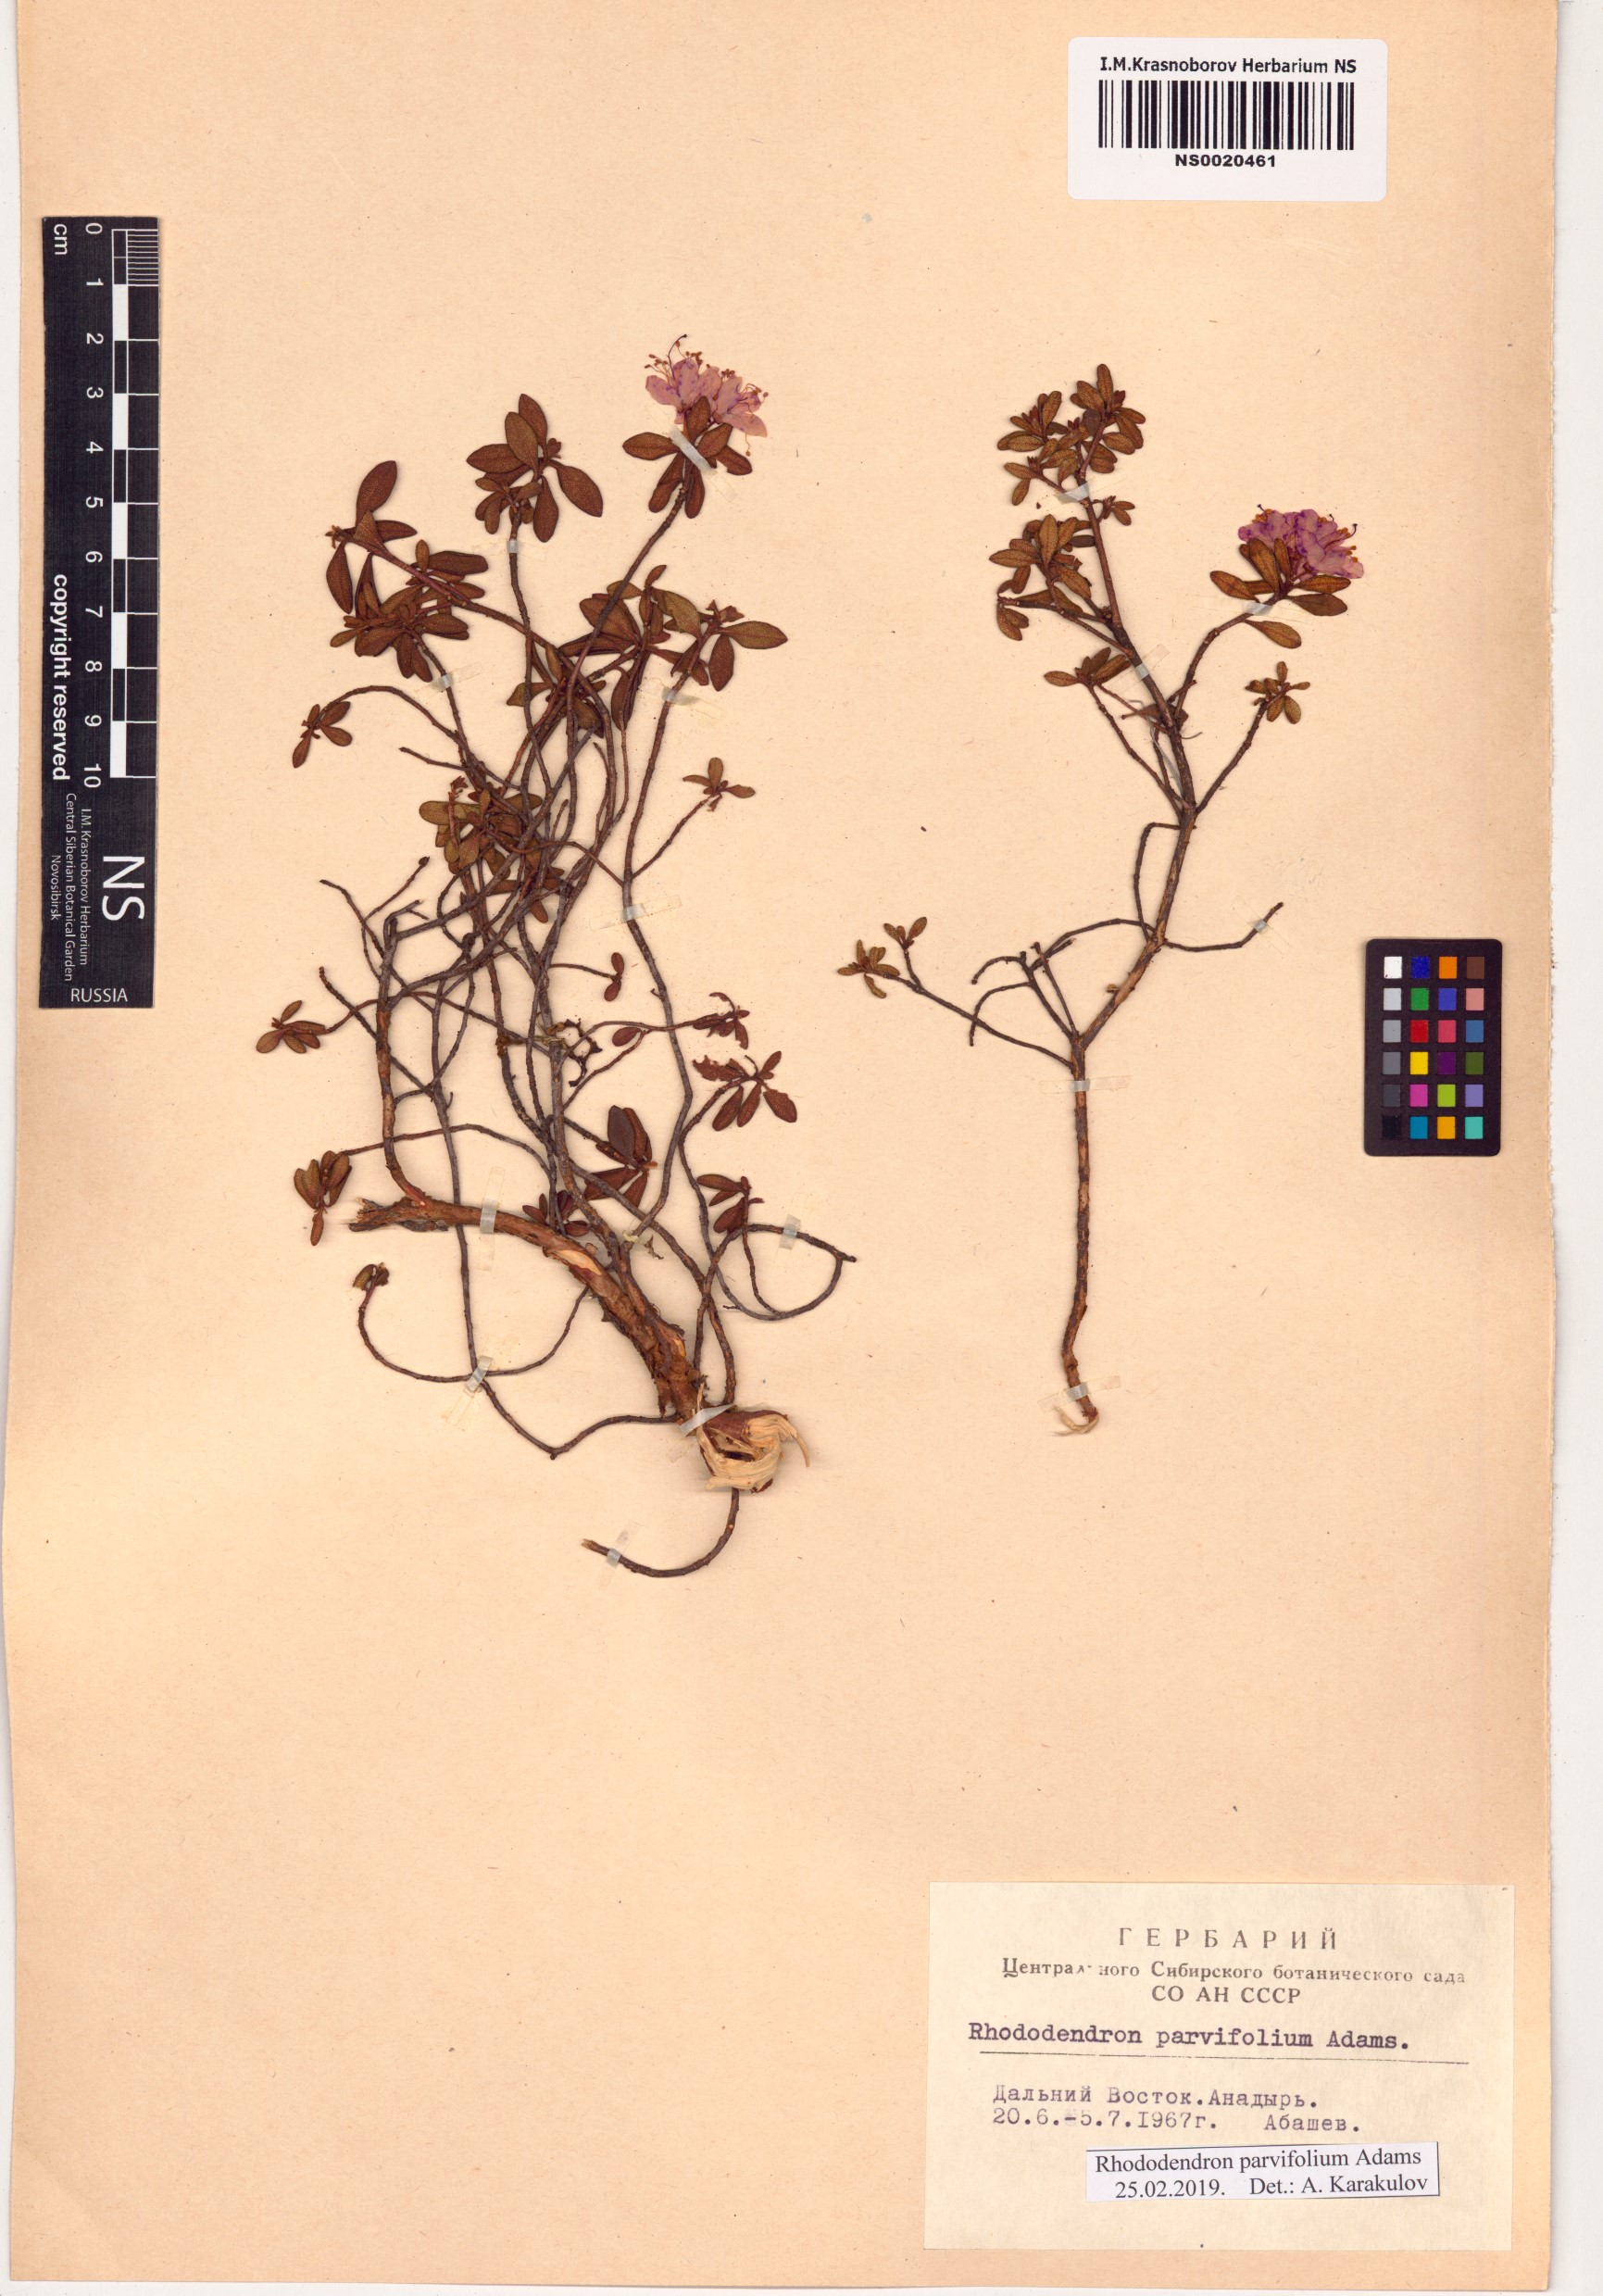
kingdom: Plantae
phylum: Tracheophyta
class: Magnoliopsida
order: Ericales
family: Ericaceae
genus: Rhododendron
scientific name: Rhododendron parvifolium
